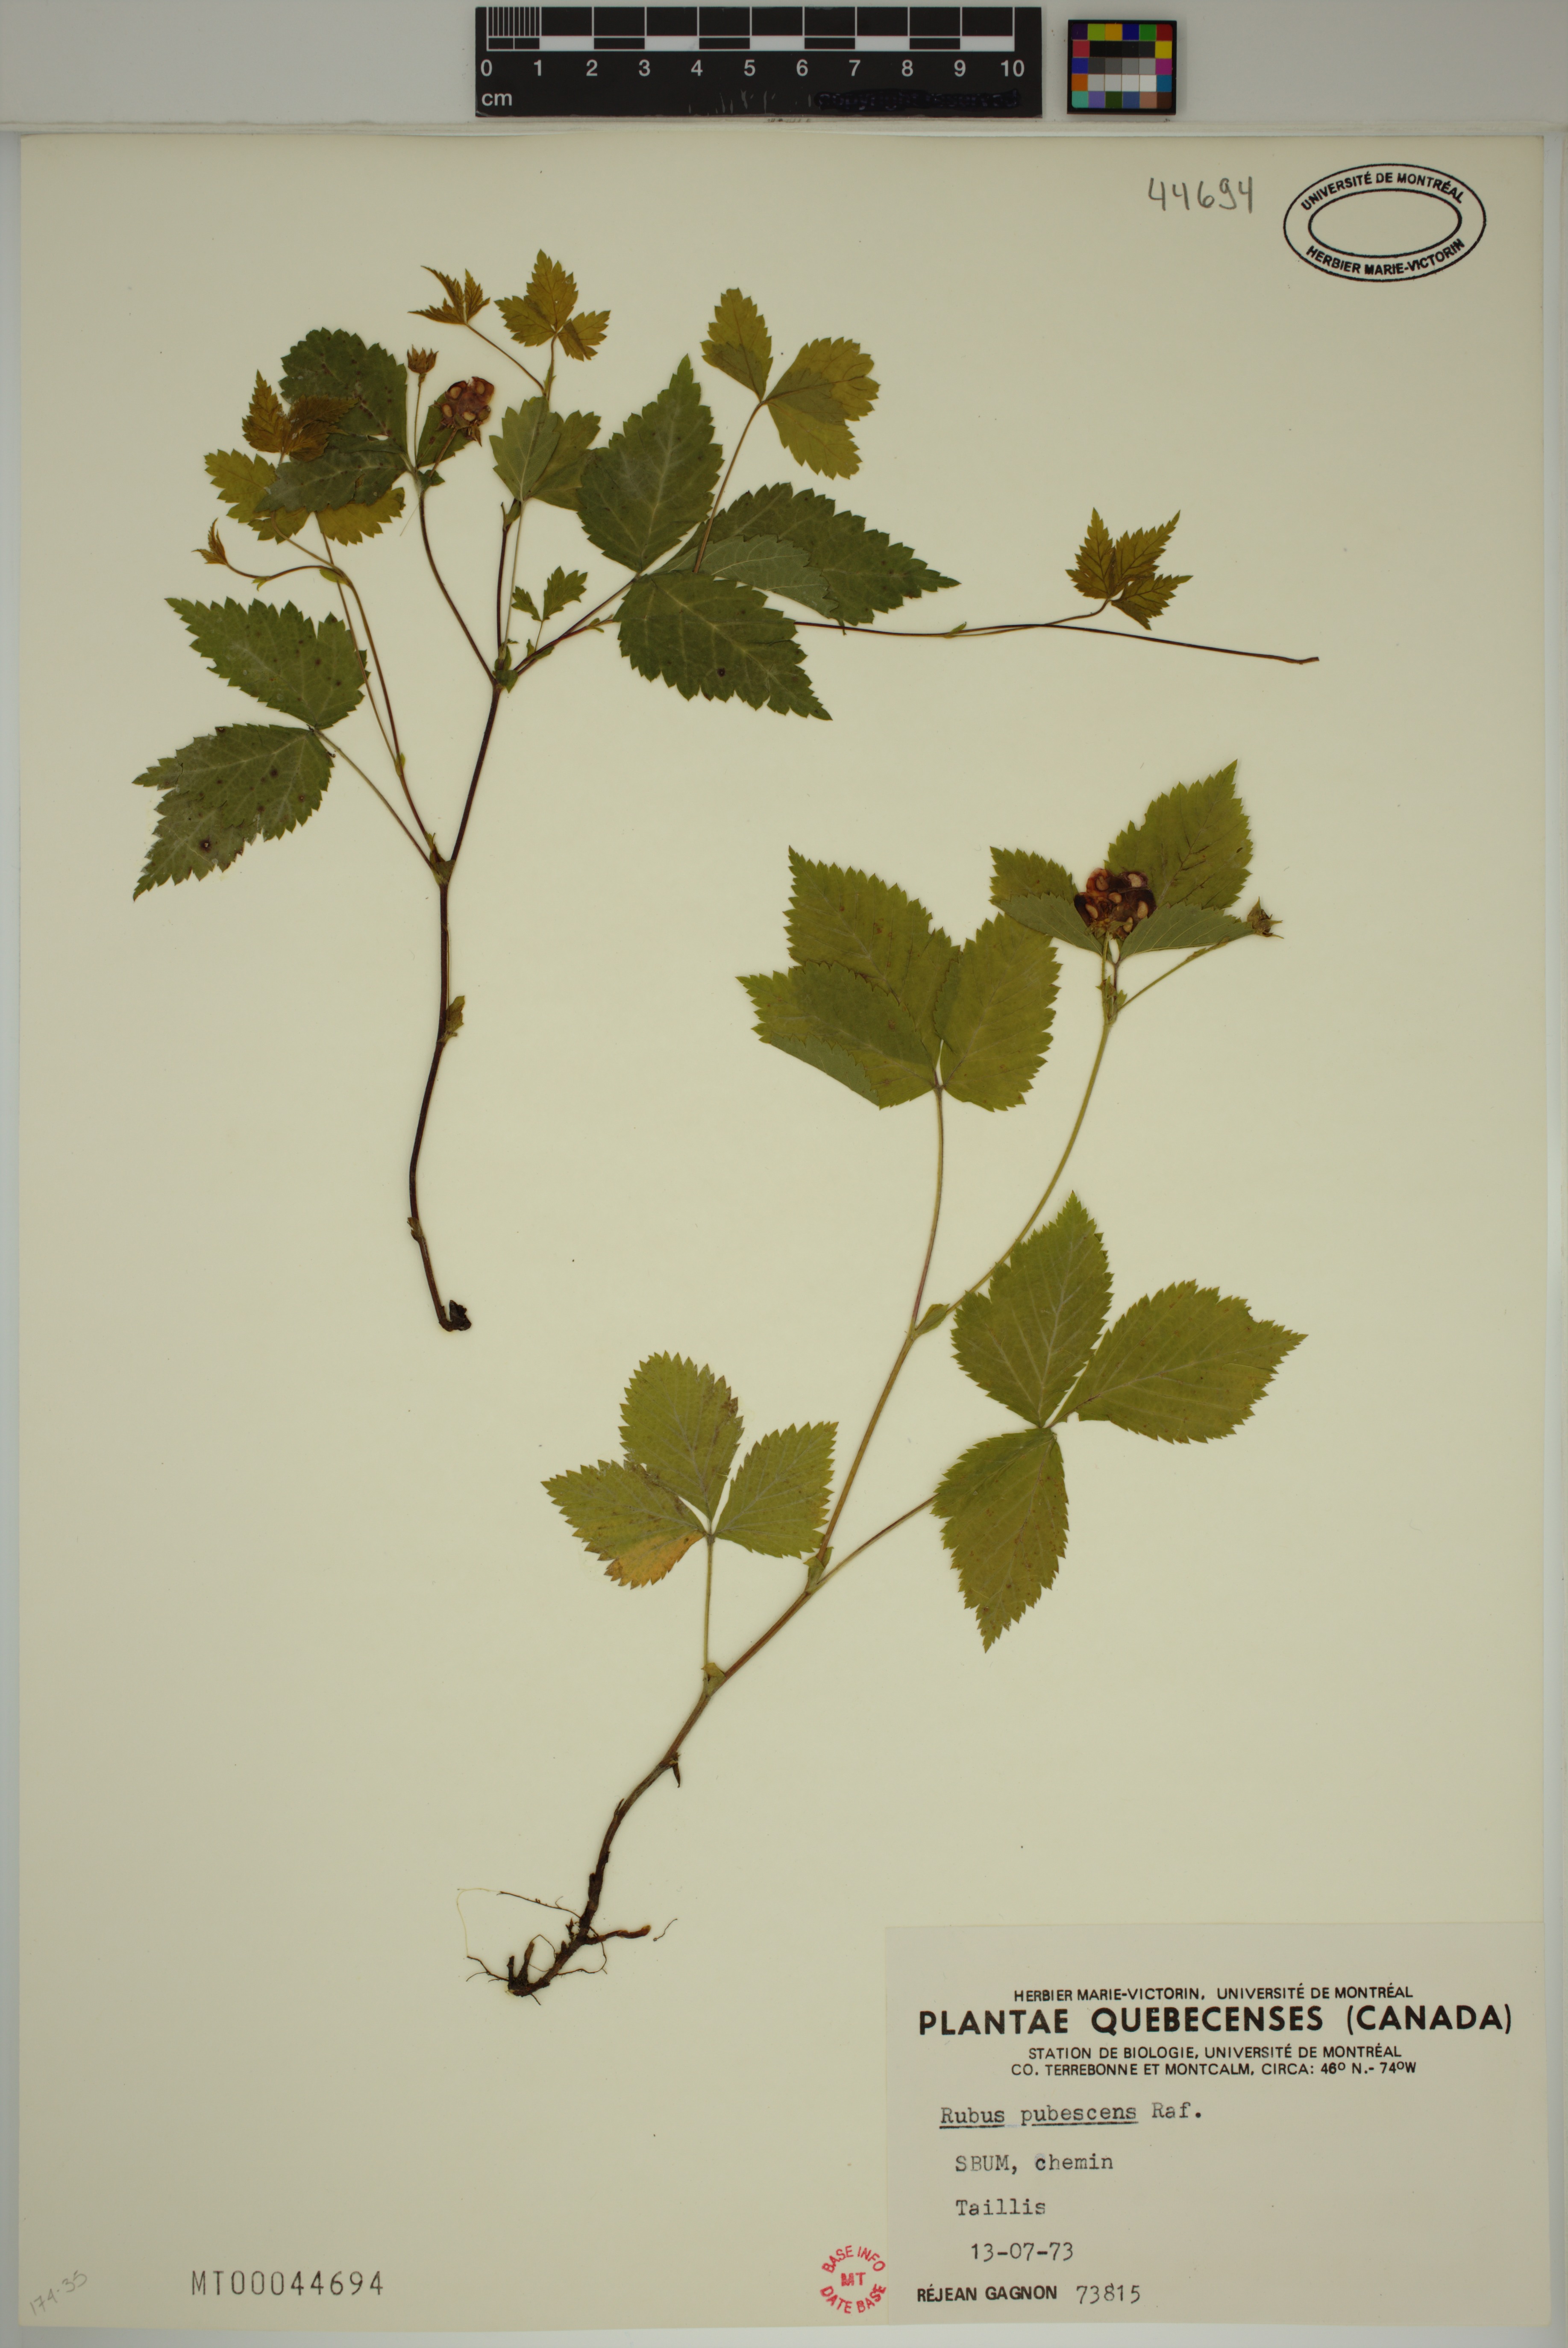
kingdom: Plantae
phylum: Tracheophyta
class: Magnoliopsida
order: Rosales
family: Rosaceae
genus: Rubus
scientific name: Rubus pubescens
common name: Dwarf raspberry
